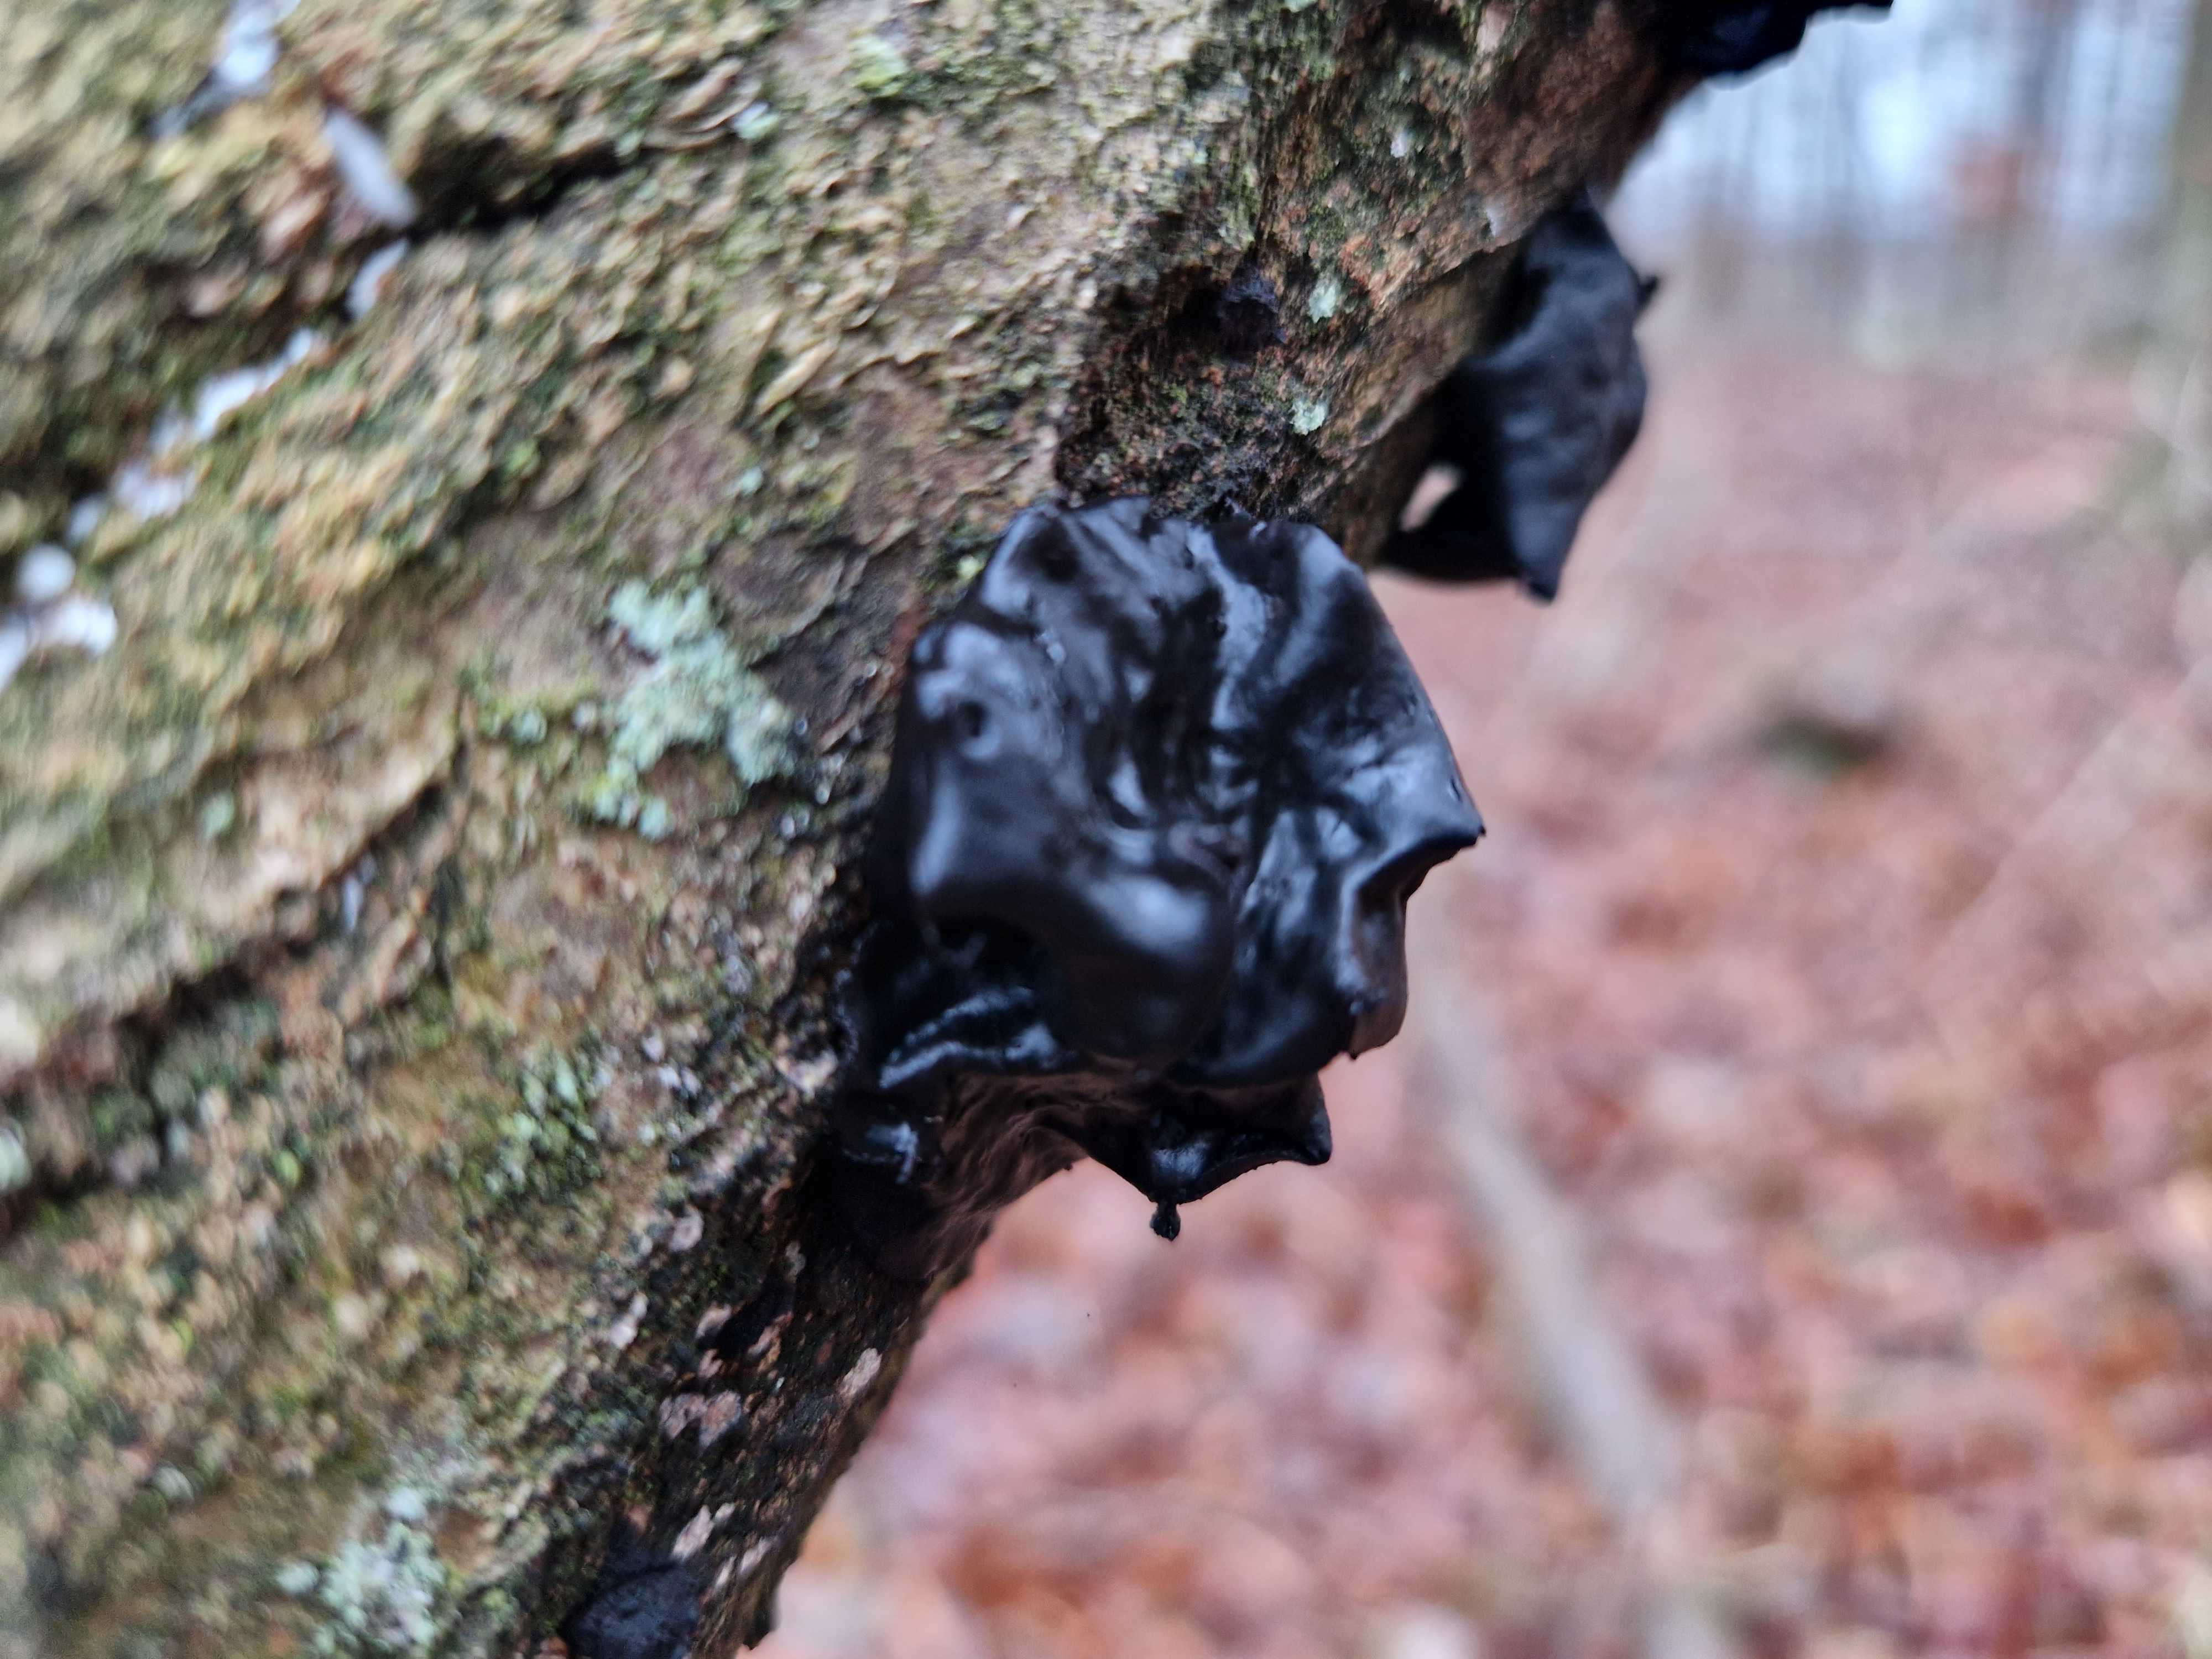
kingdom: Fungi
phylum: Basidiomycota
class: Agaricomycetes
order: Auriculariales
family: Auriculariaceae
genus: Exidia
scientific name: Exidia glandulosa
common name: ege-bævretop
